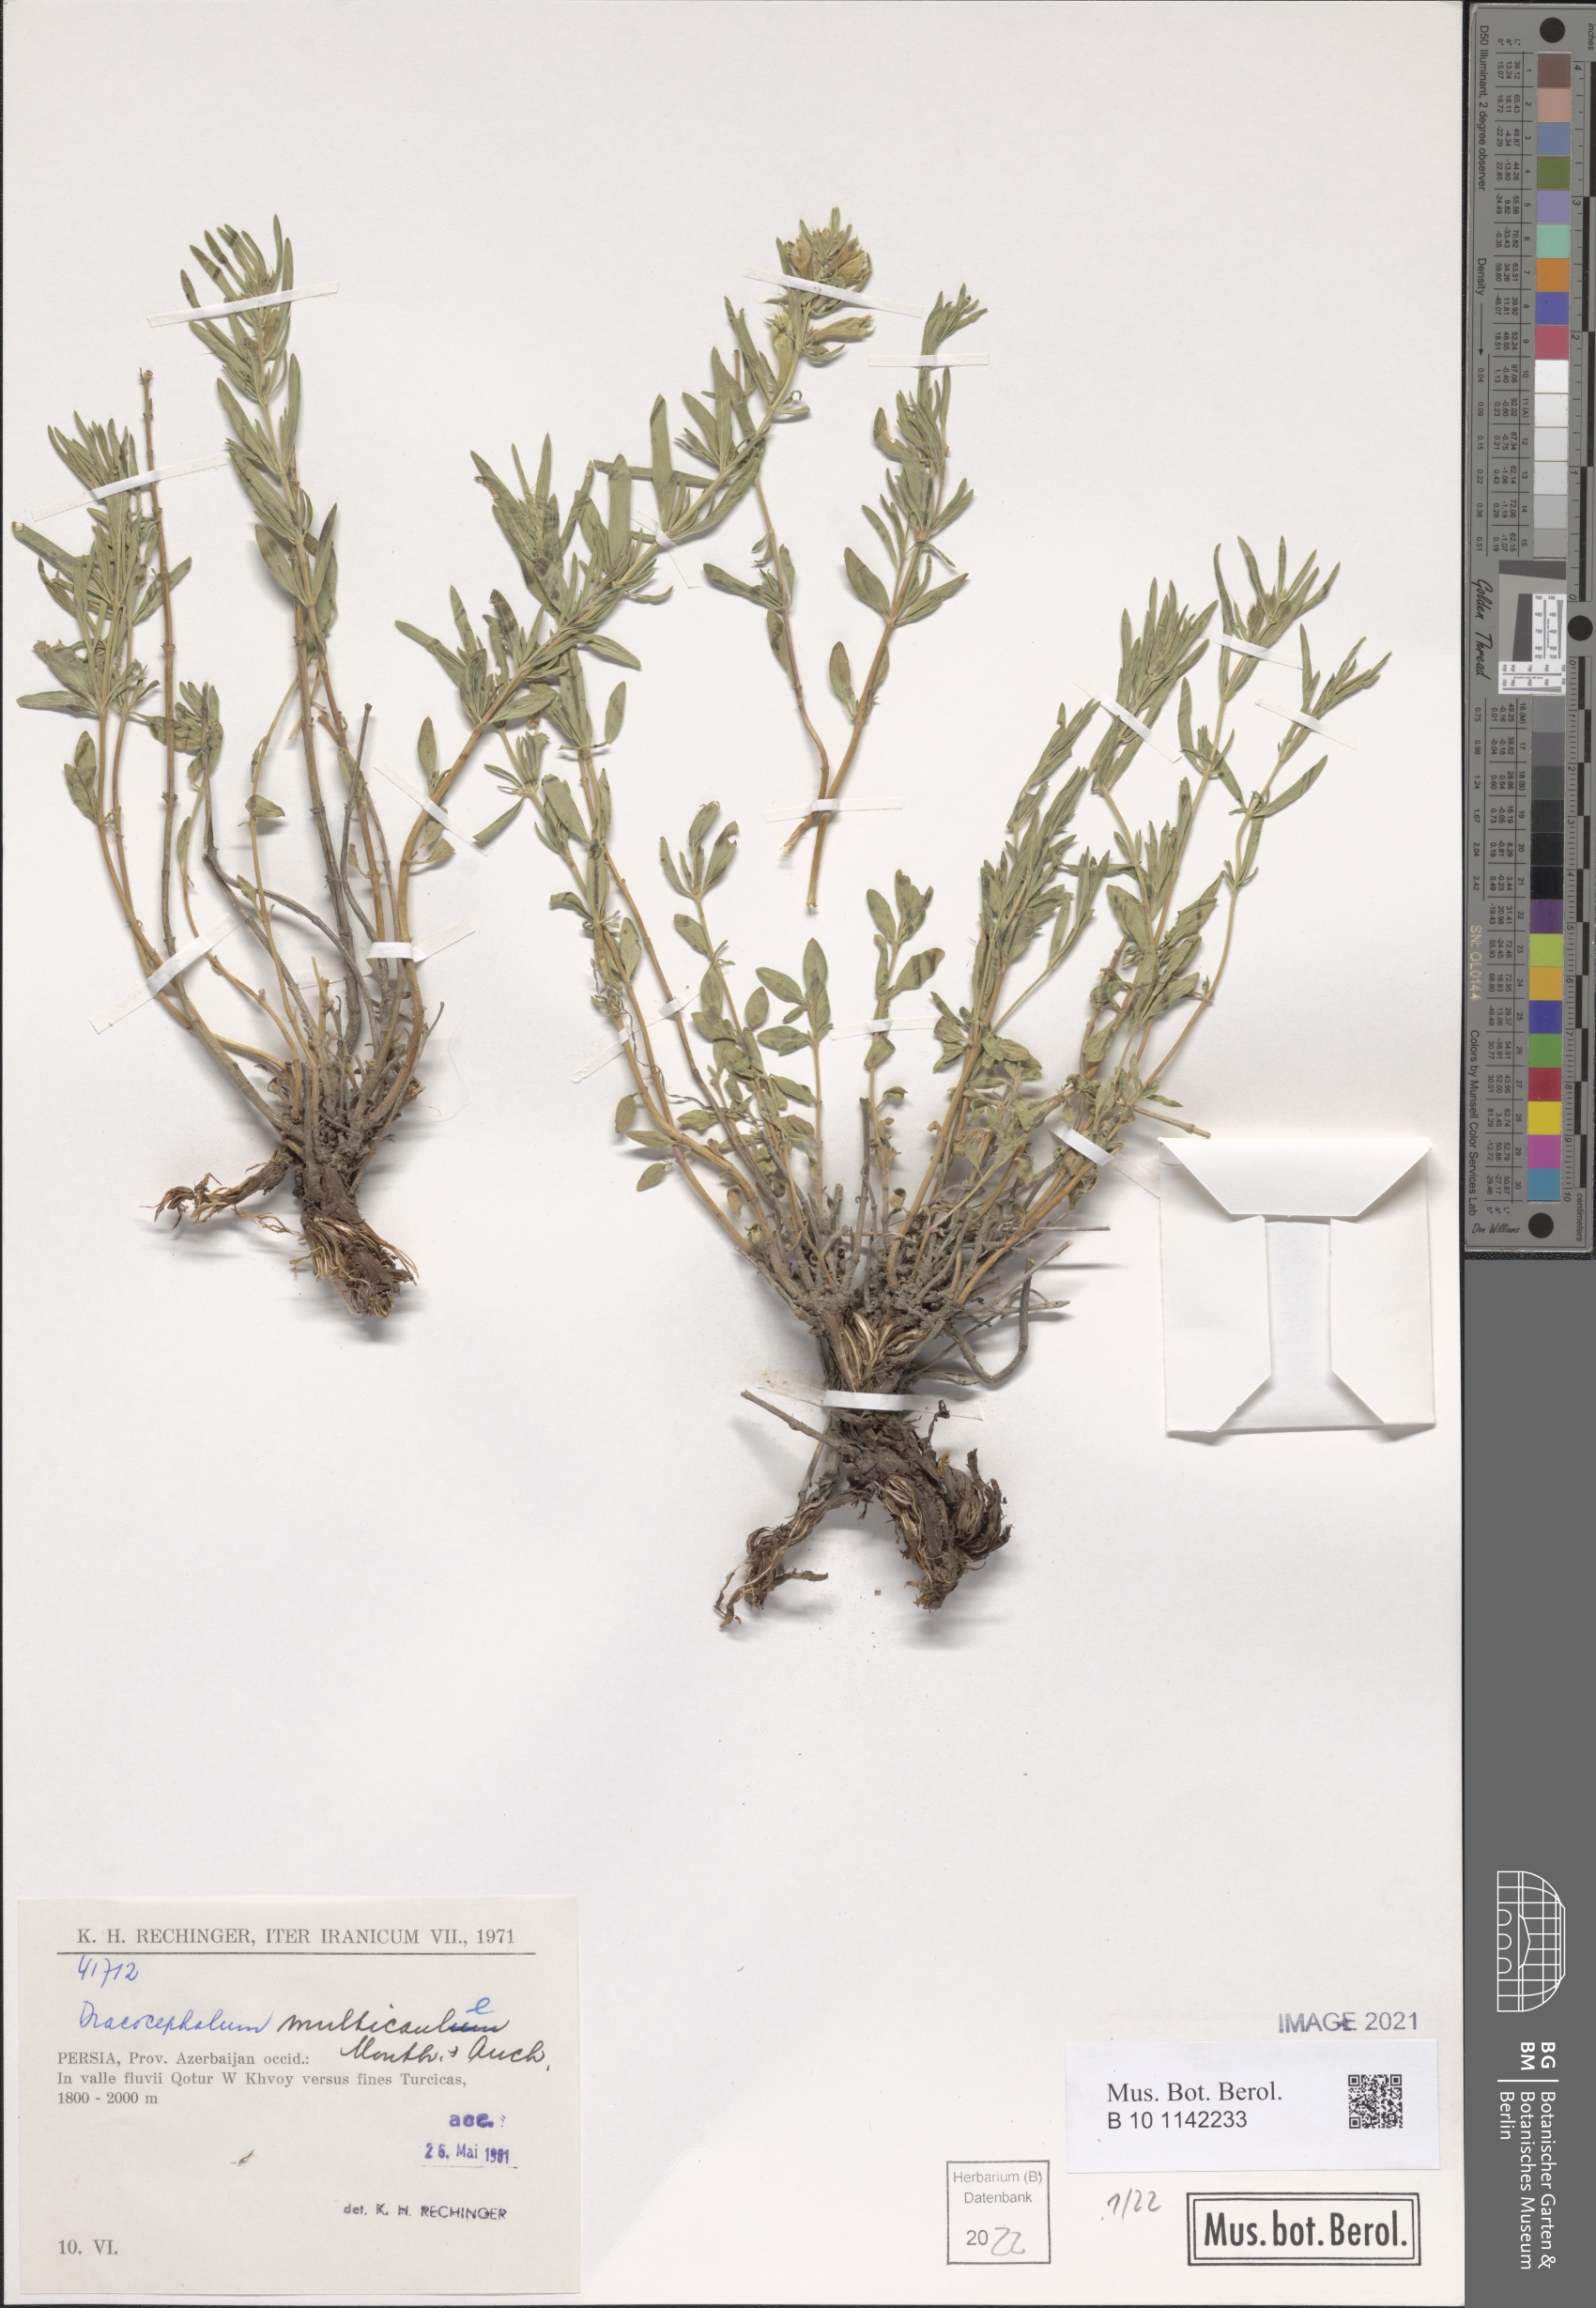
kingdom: Plantae
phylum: Tracheophyta
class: Magnoliopsida
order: Lamiales
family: Lamiaceae
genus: Dracocephalum
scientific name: Dracocephalum multicaule
